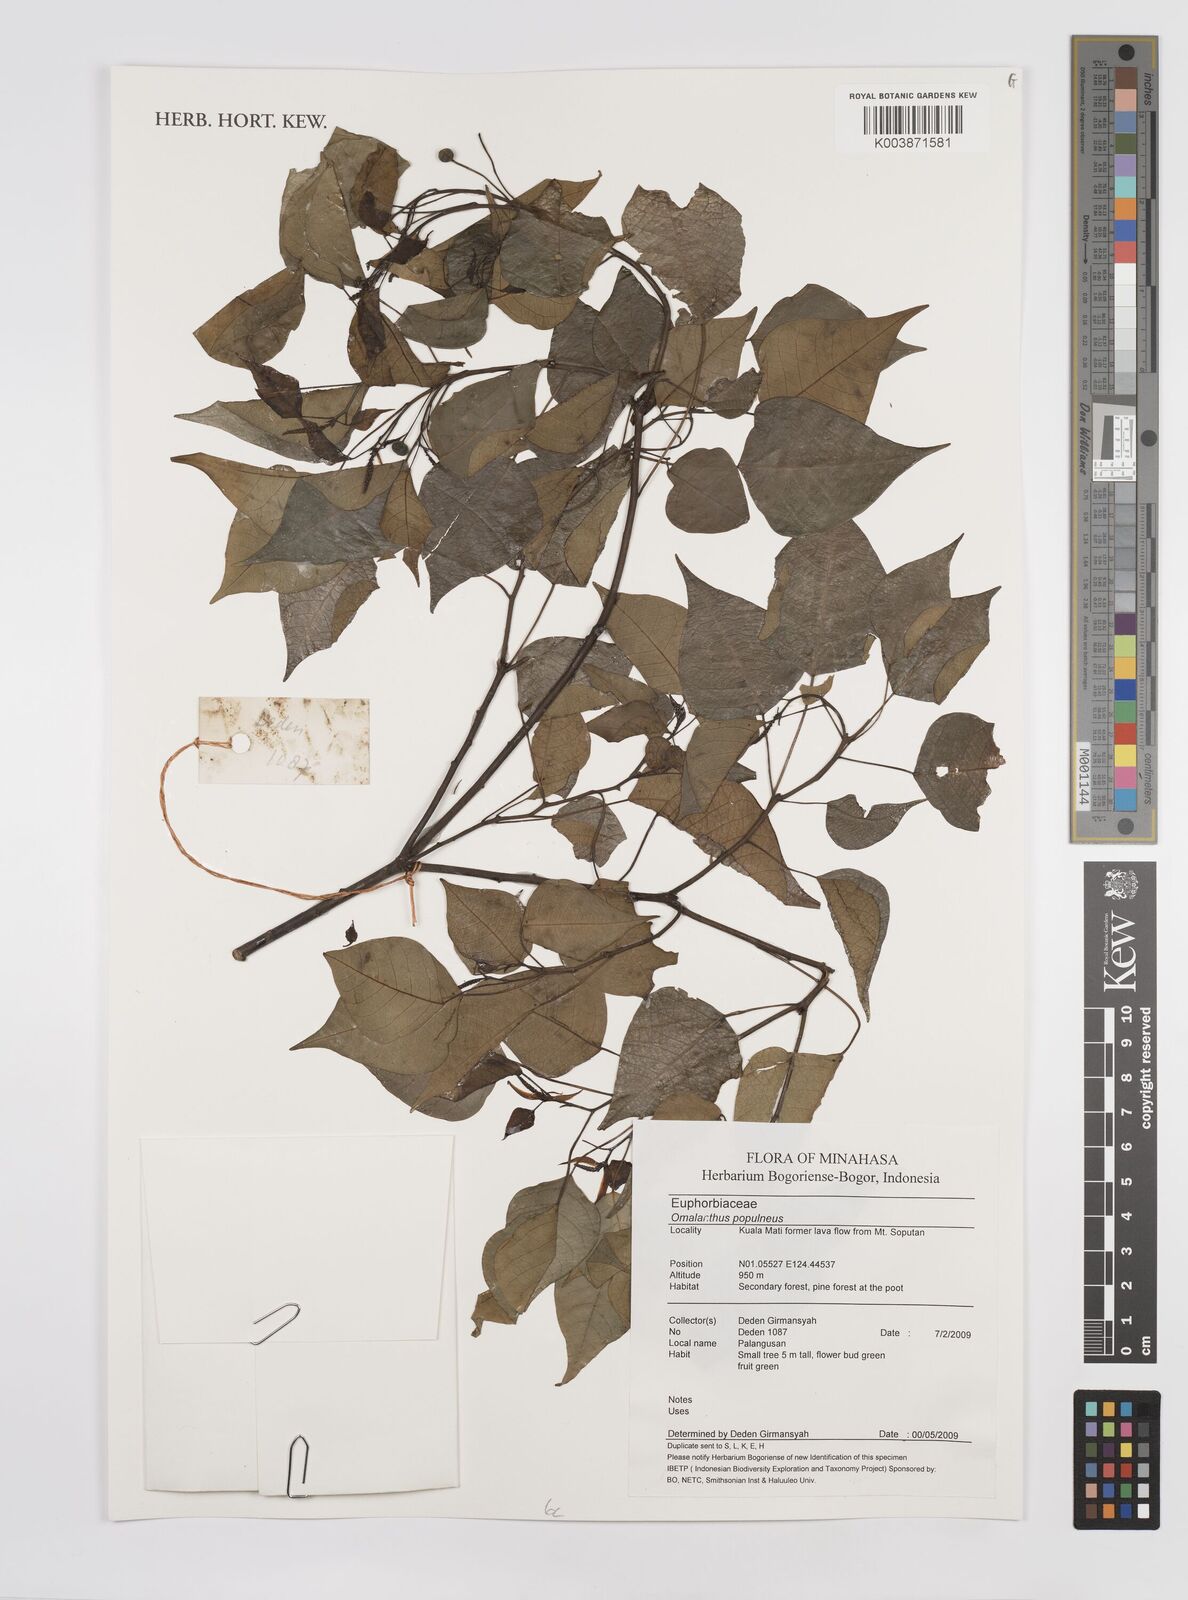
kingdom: Plantae
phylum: Tracheophyta
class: Magnoliopsida
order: Malpighiales
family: Euphorbiaceae
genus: Homalanthus
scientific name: Homalanthus populneus
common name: Spurge
